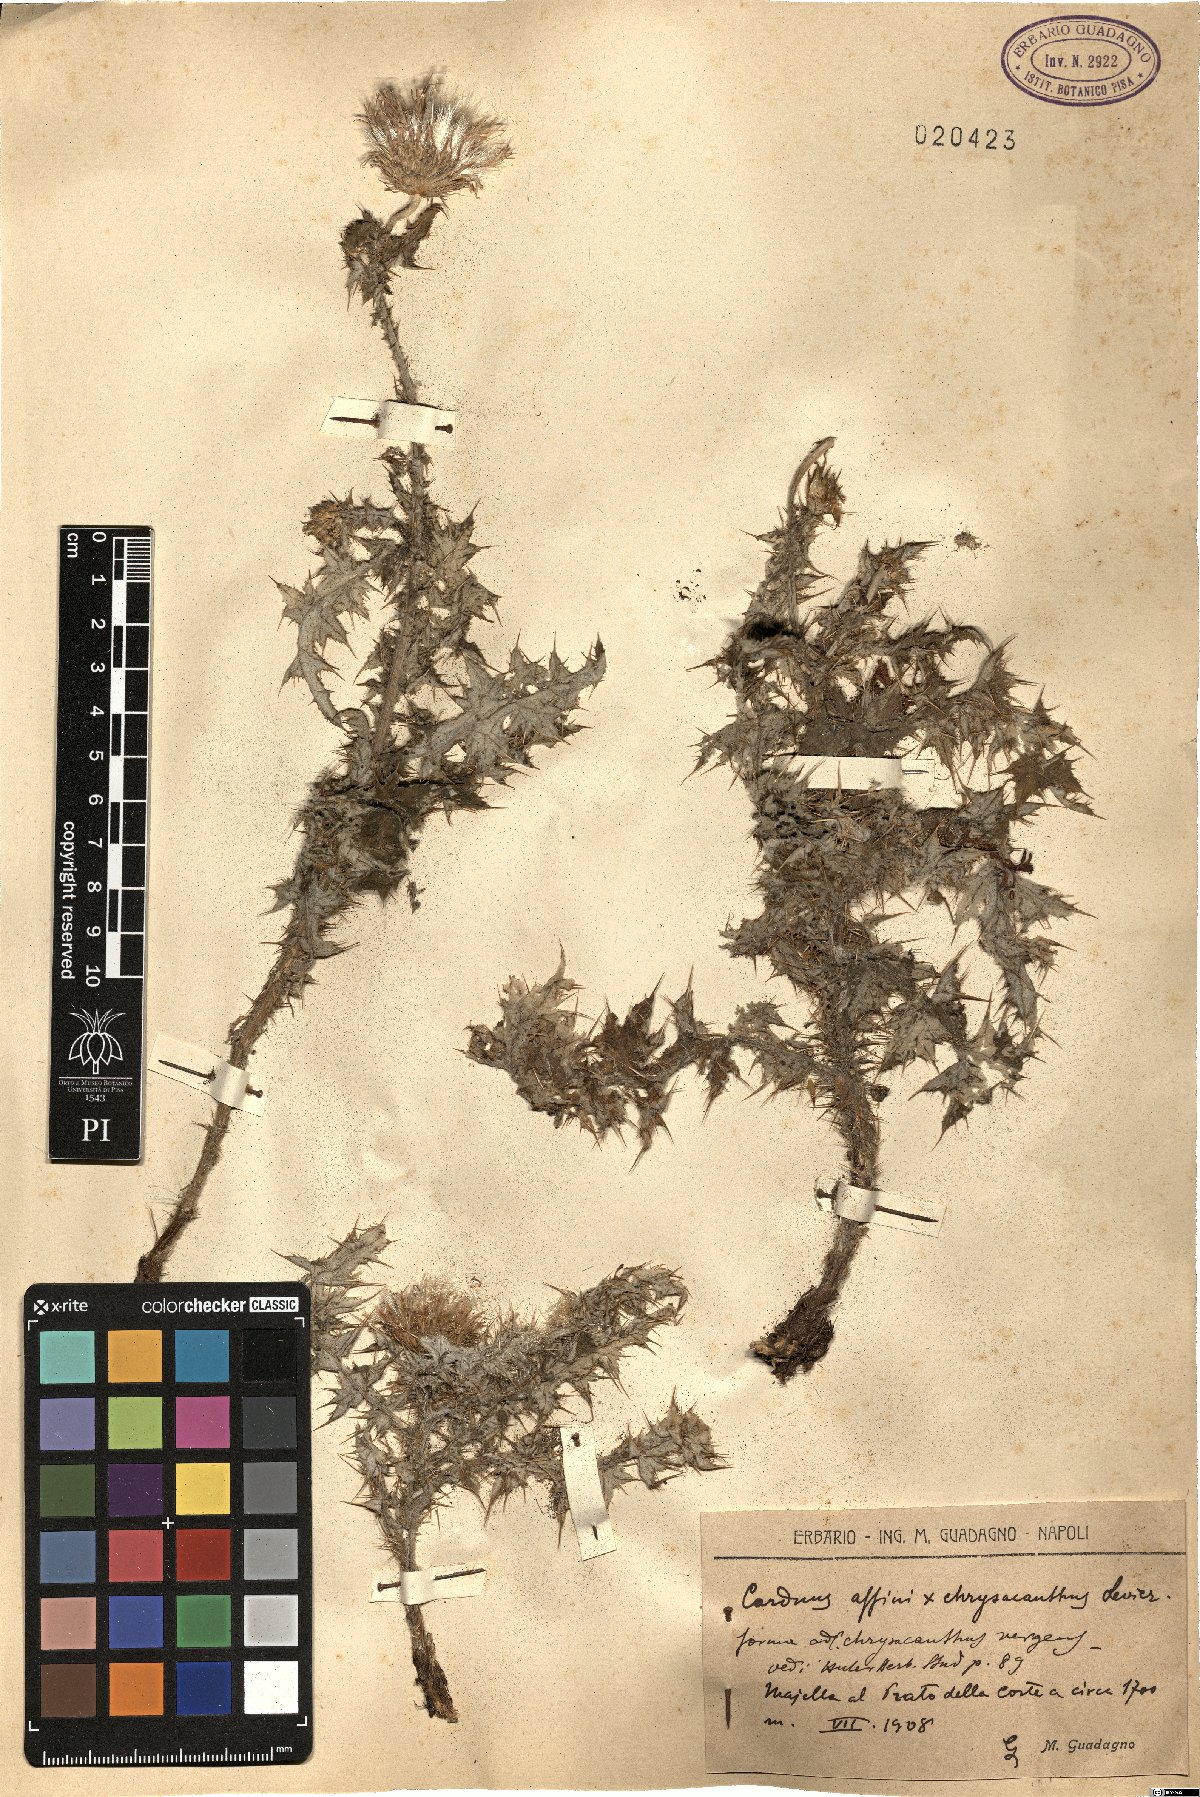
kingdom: Plantae
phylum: Tracheophyta
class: Magnoliopsida
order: Asterales
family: Asteraceae
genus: Carduus
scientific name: Carduus affinis
